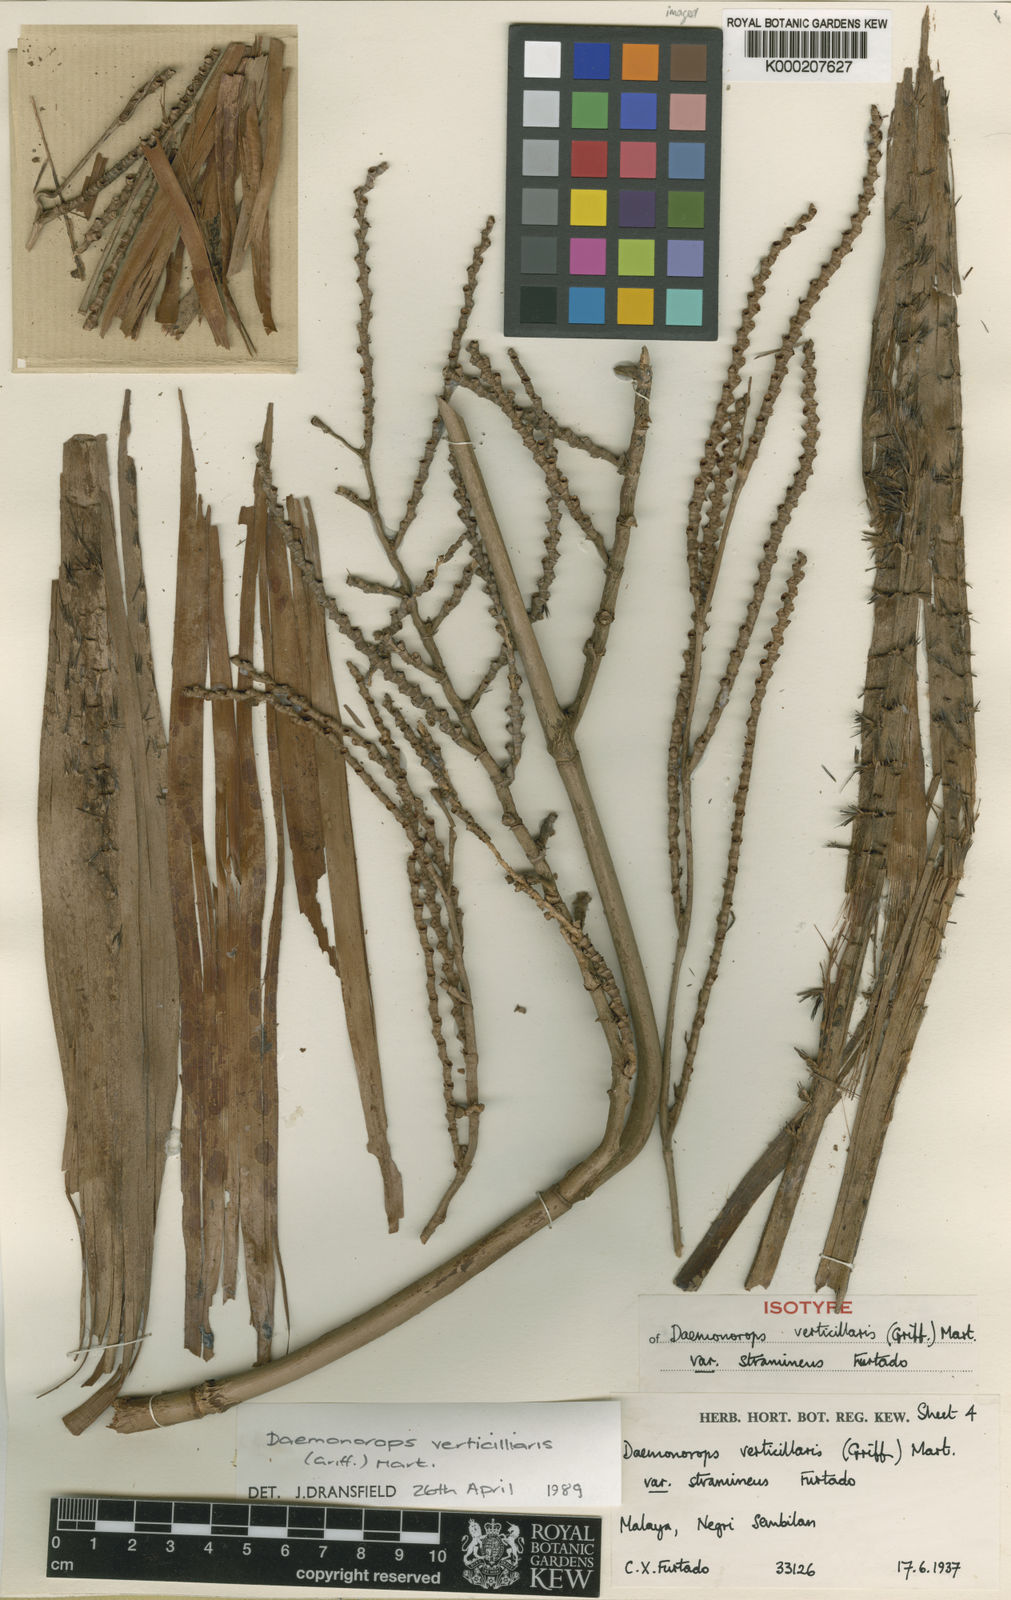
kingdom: Plantae
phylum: Tracheophyta
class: Liliopsida
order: Arecales
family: Arecaceae
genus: Calamus
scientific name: Calamus verticillaris
